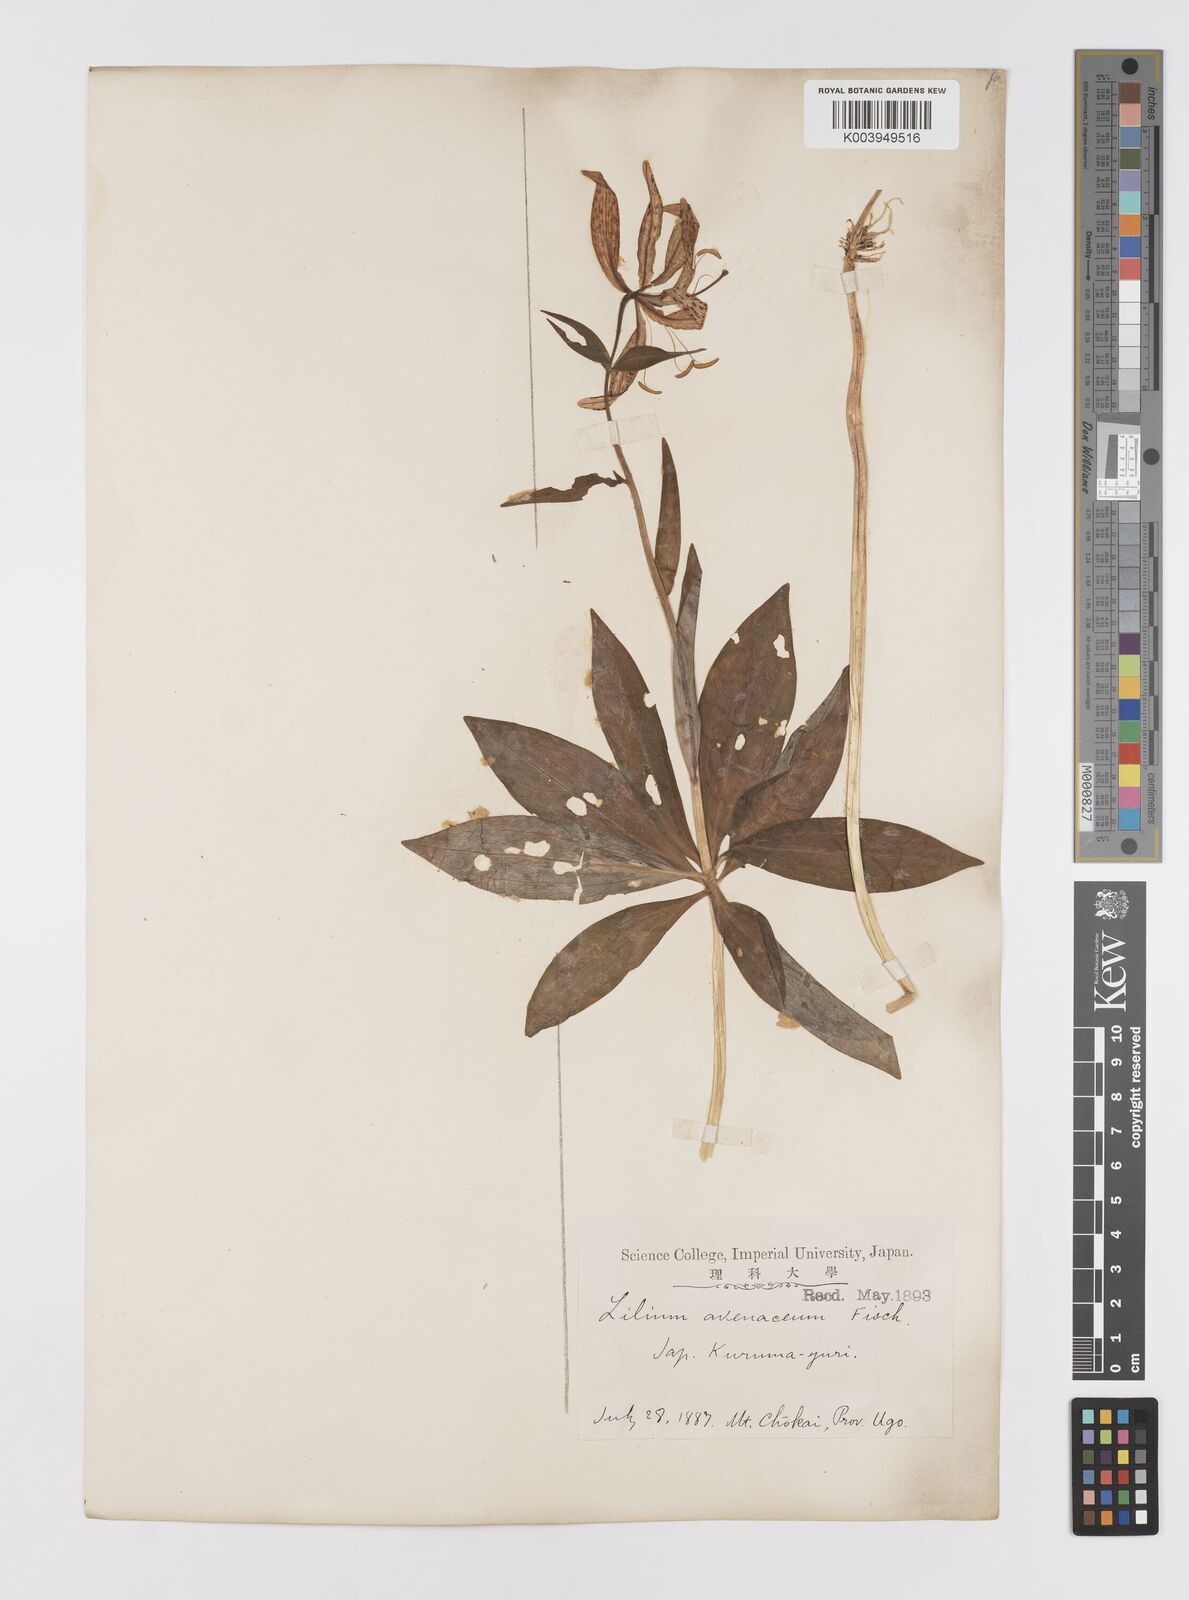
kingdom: Plantae
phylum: Tracheophyta
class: Liliopsida
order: Liliales
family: Liliaceae
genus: Lilium
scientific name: Lilium medeoloides
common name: Wheel lily
